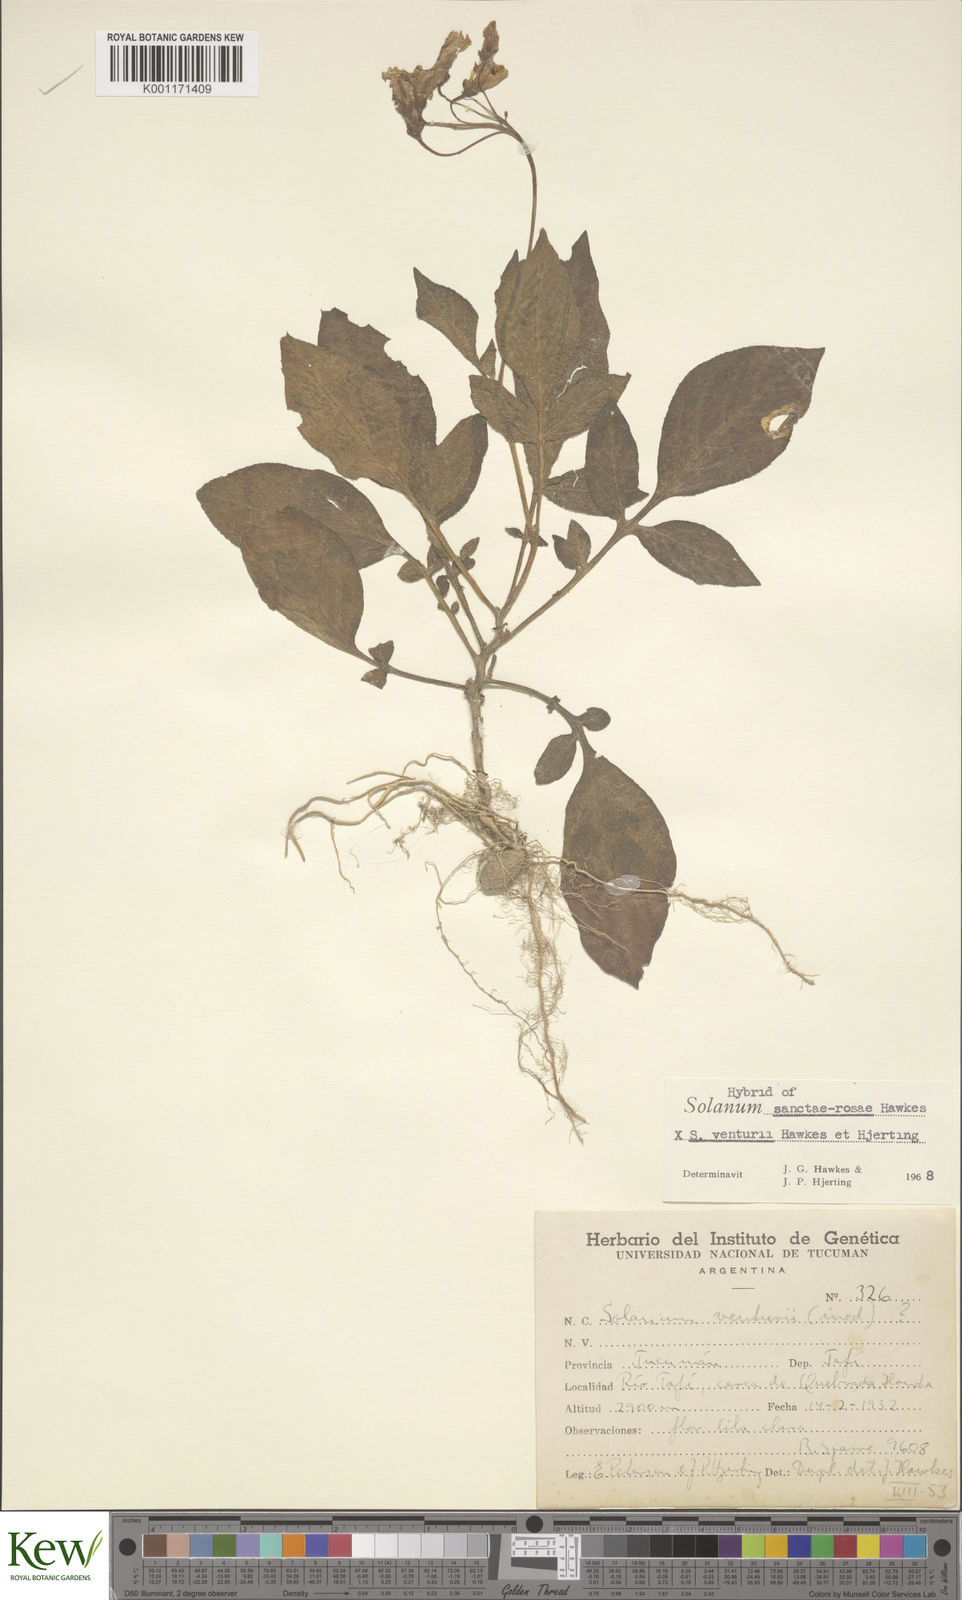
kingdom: Plantae
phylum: Tracheophyta
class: Magnoliopsida
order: Solanales
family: Solanaceae
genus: Solanum
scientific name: Solanum boliviense
